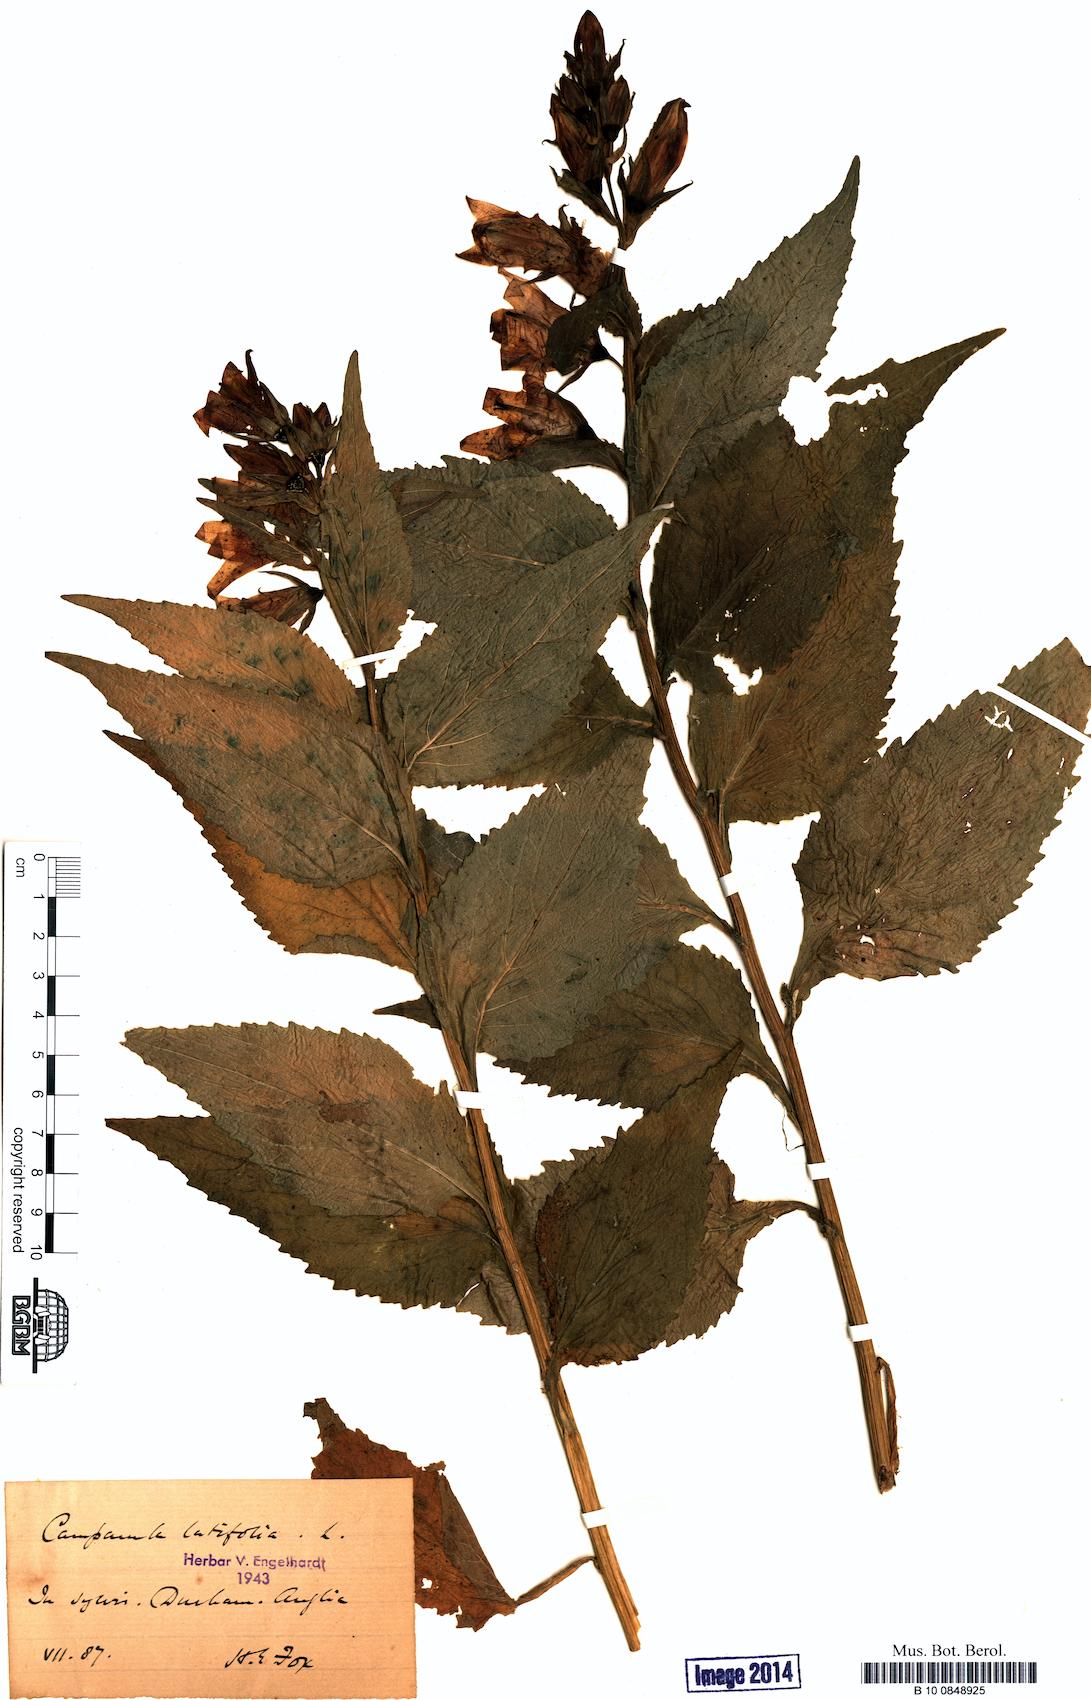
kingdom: Plantae
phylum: Tracheophyta
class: Magnoliopsida
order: Asterales
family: Campanulaceae
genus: Campanula
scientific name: Campanula latifolia
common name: Giant bellflower
